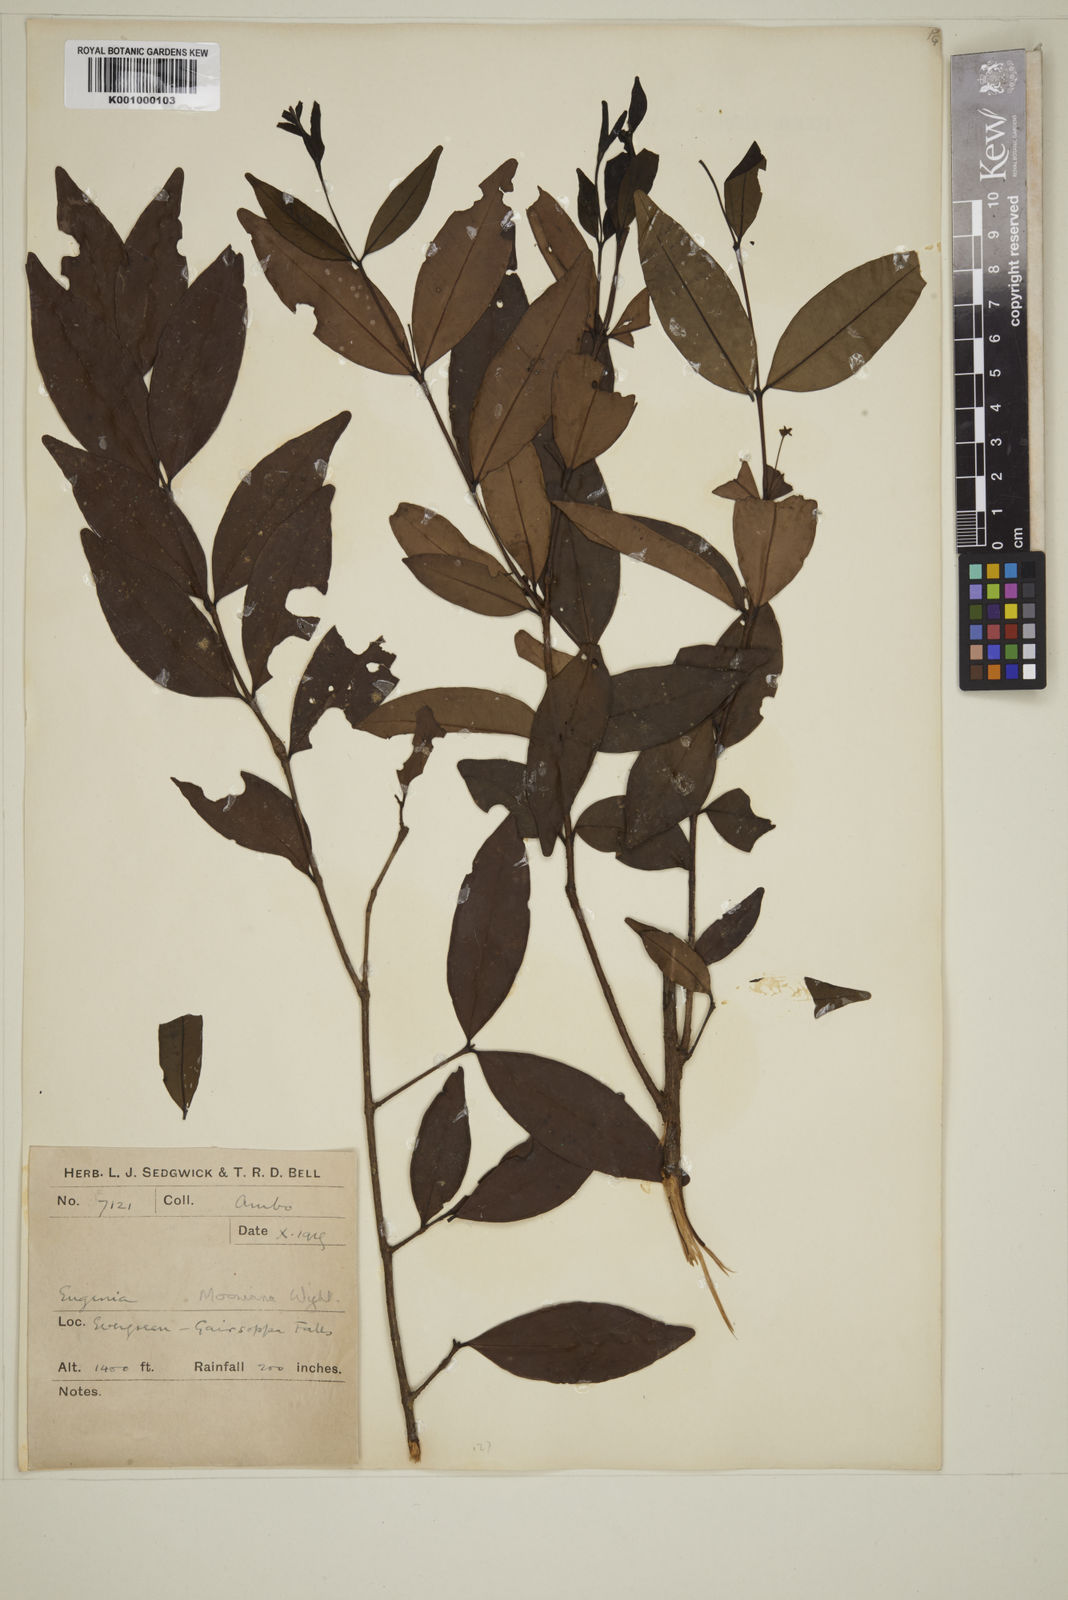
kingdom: Plantae
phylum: Tracheophyta
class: Magnoliopsida
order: Myrtales
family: Myrtaceae
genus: Eugenia
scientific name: Eugenia thwaitesii
